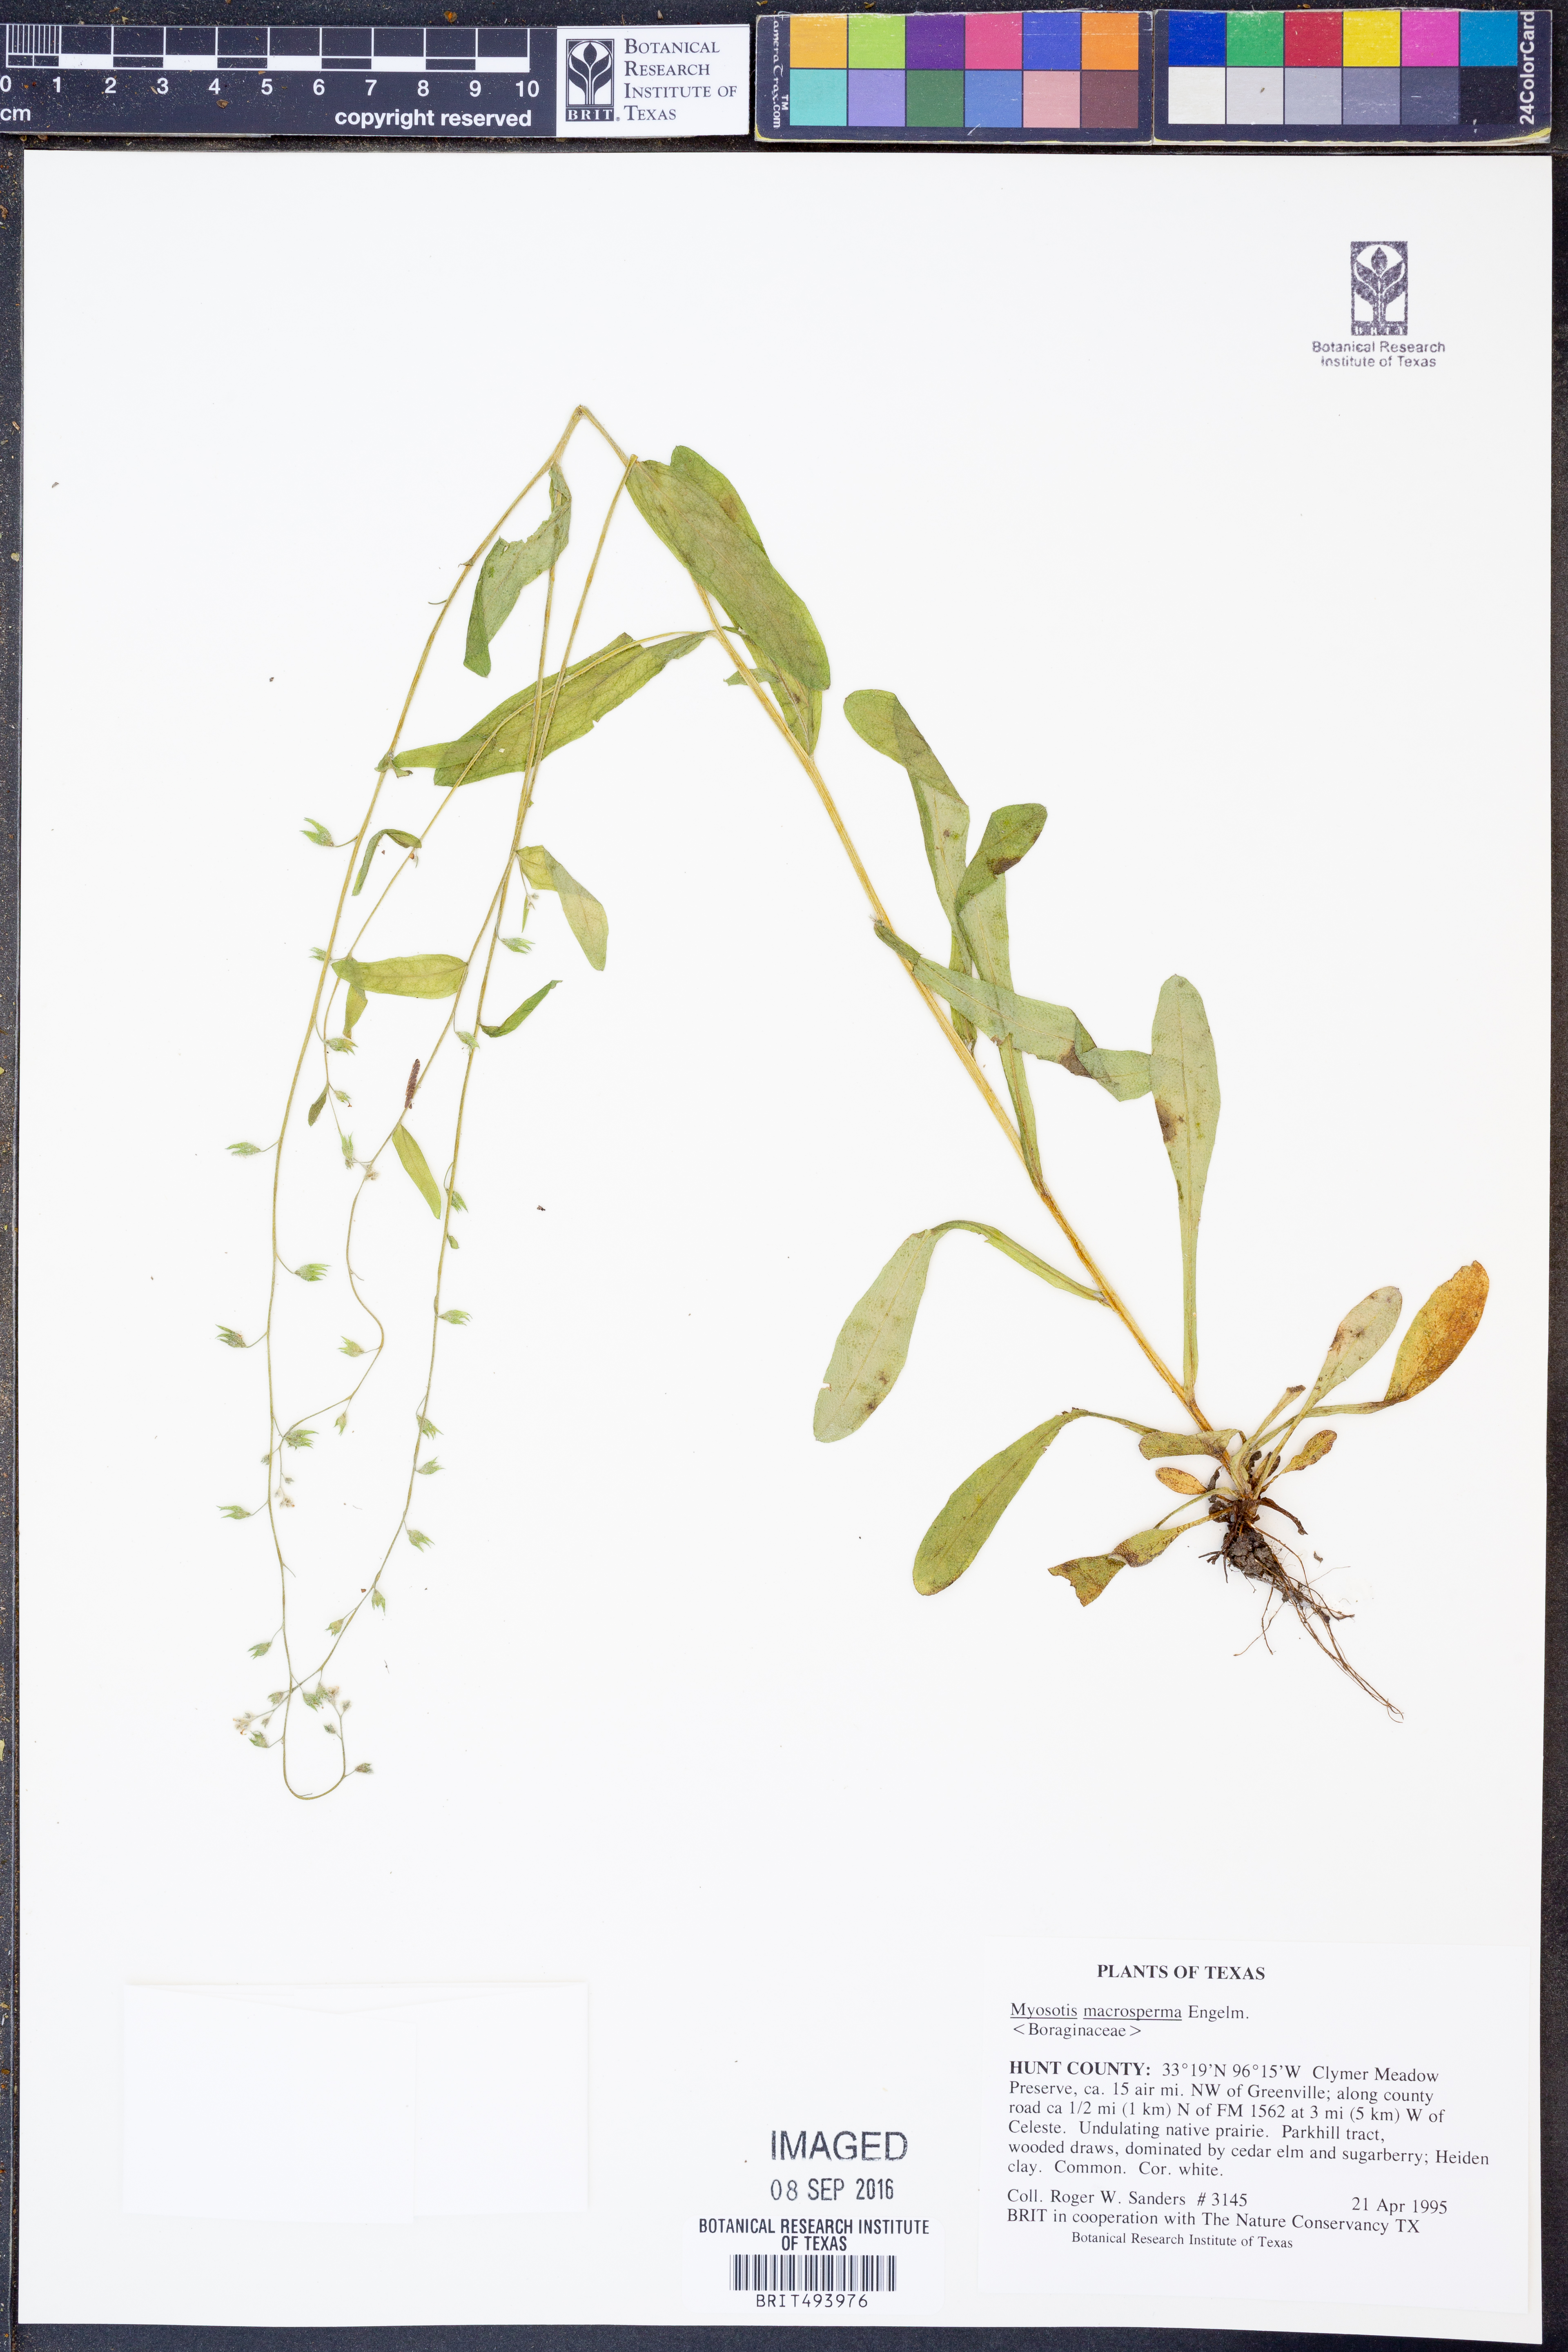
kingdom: Plantae
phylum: Tracheophyta
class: Magnoliopsida
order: Boraginales
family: Boraginaceae
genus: Myosotis
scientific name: Myosotis macrosperma
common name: Large-seed forget-me-not
